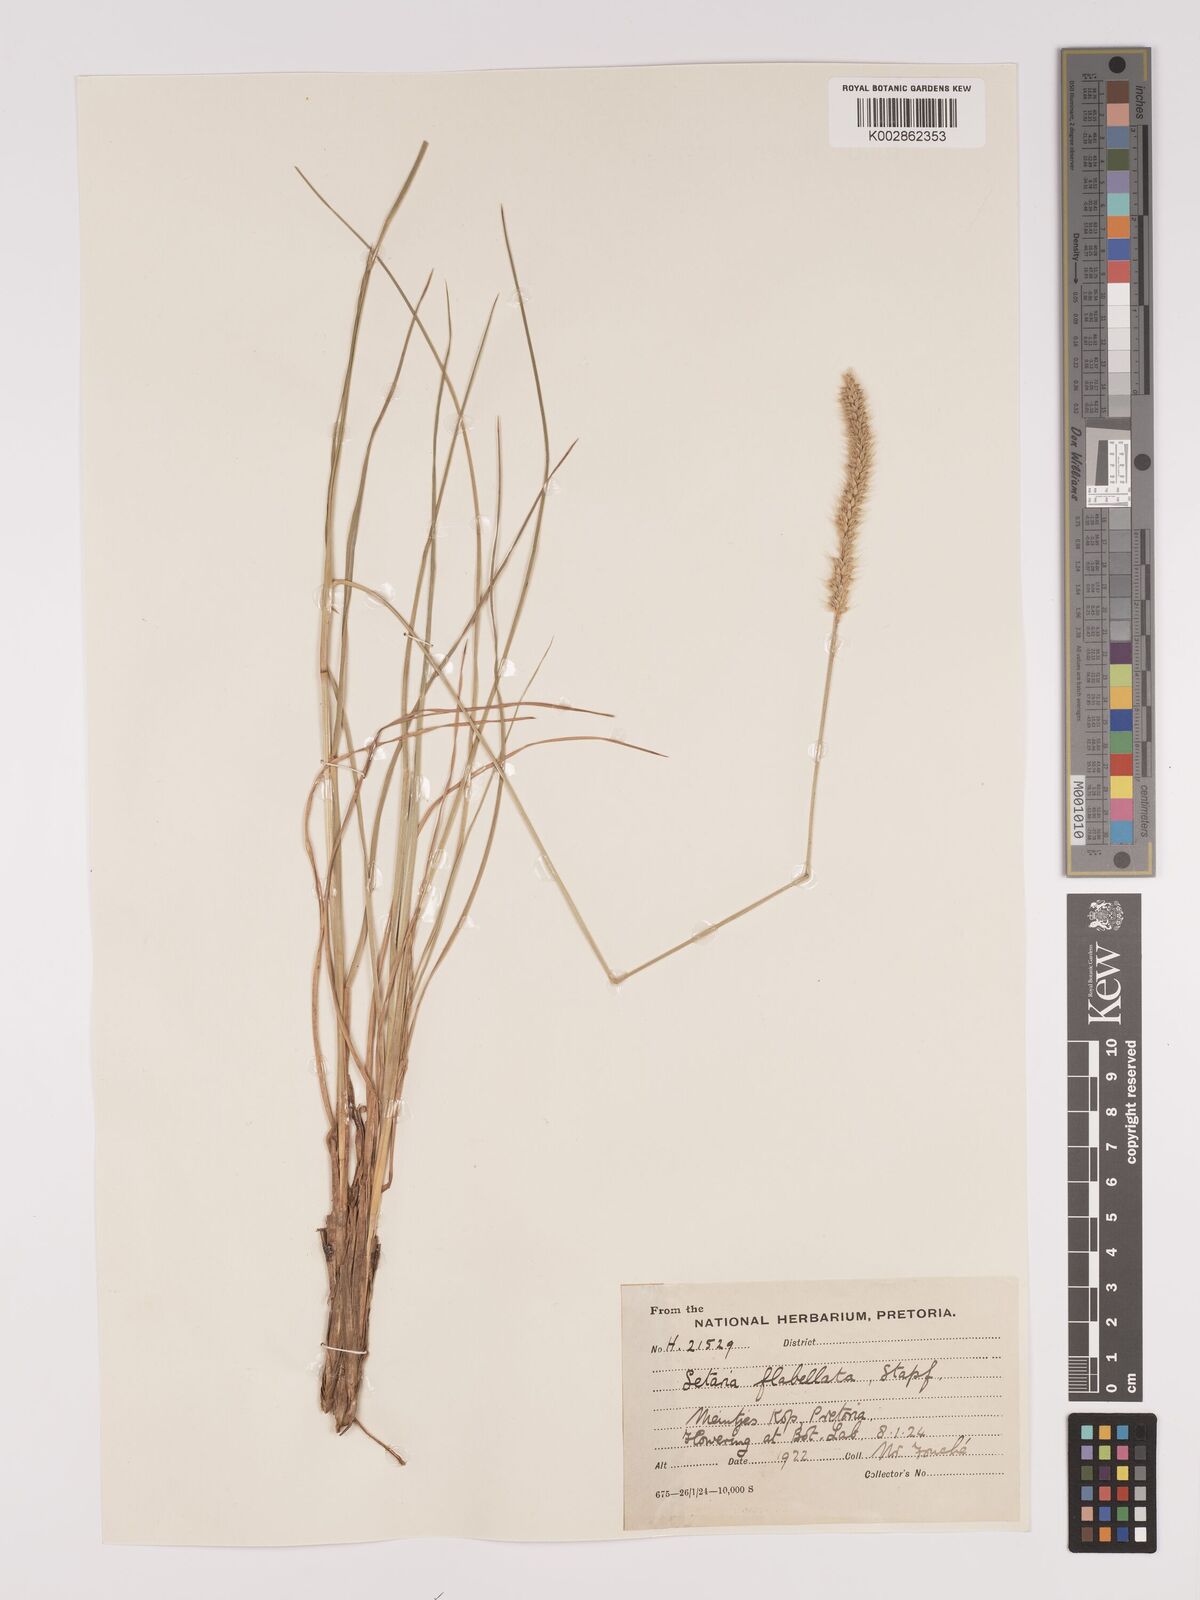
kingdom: Plantae
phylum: Tracheophyta
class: Liliopsida
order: Poales
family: Poaceae
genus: Setaria
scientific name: Setaria sphacelata
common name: African bristlegrass
